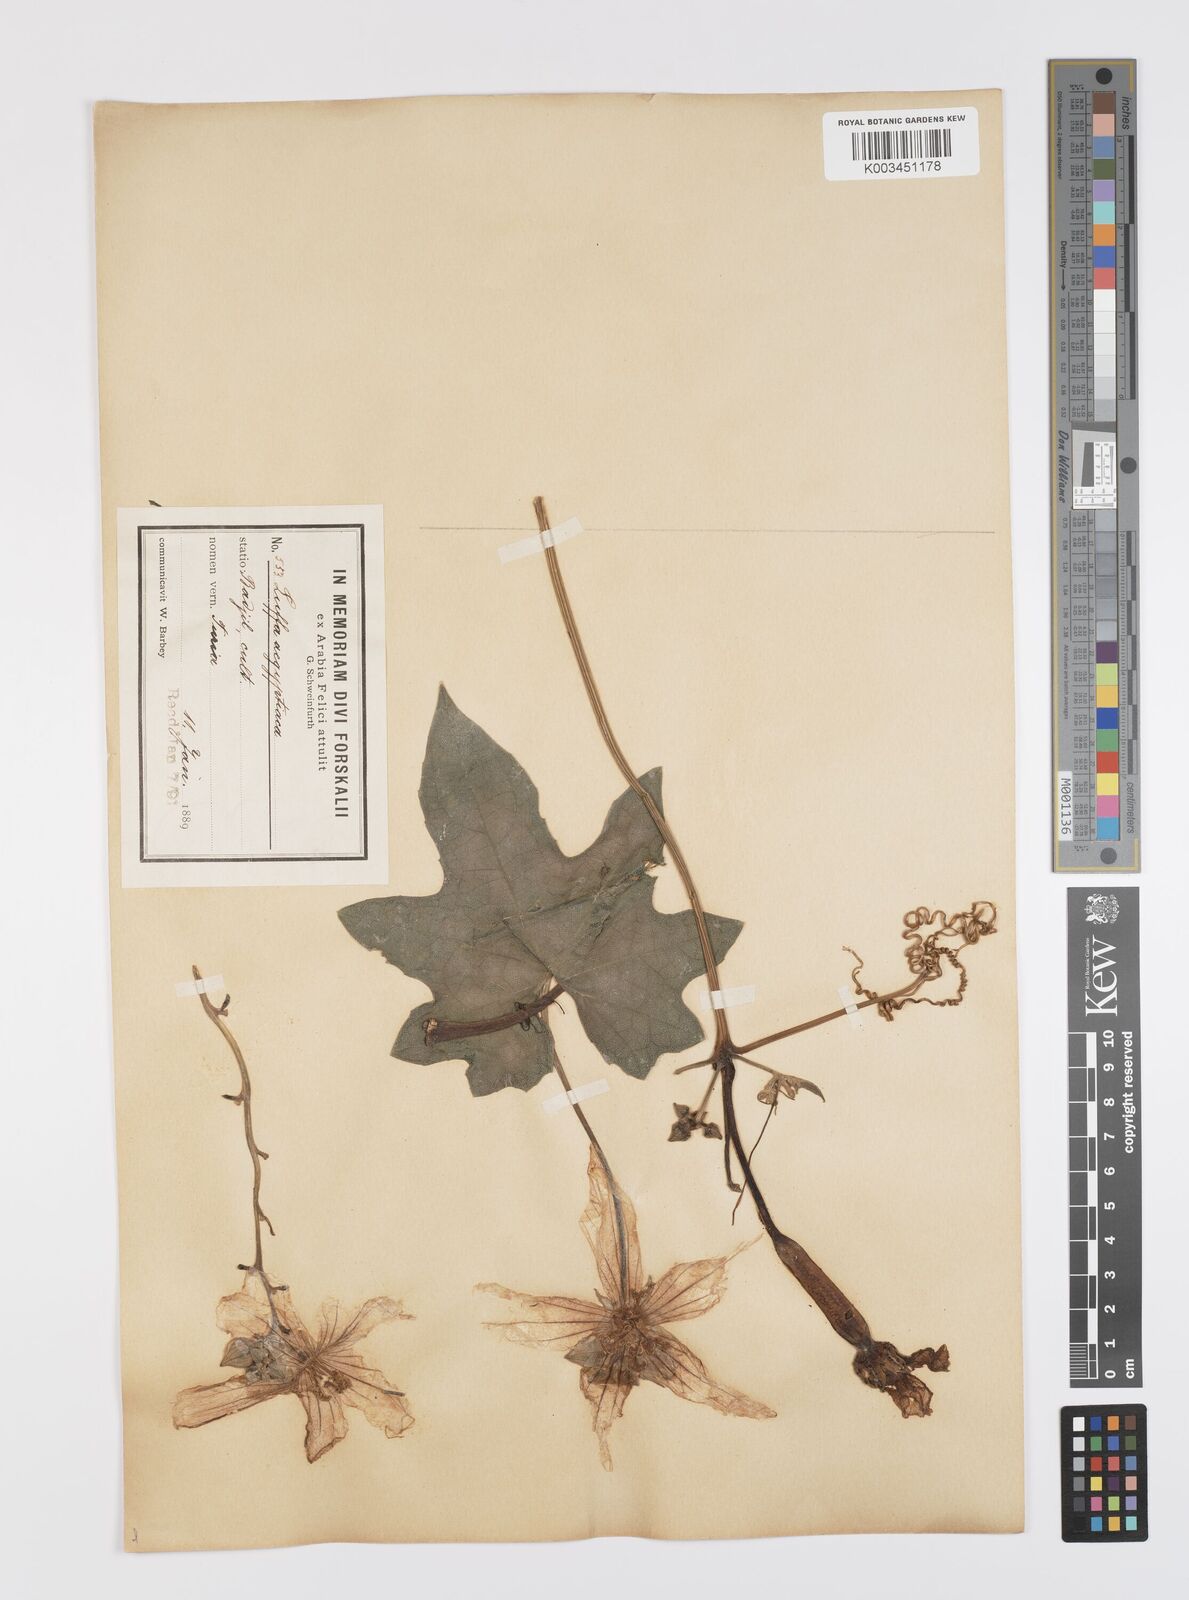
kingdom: Plantae
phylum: Tracheophyta
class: Magnoliopsida
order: Cucurbitales
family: Cucurbitaceae
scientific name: Cucurbitaceae
